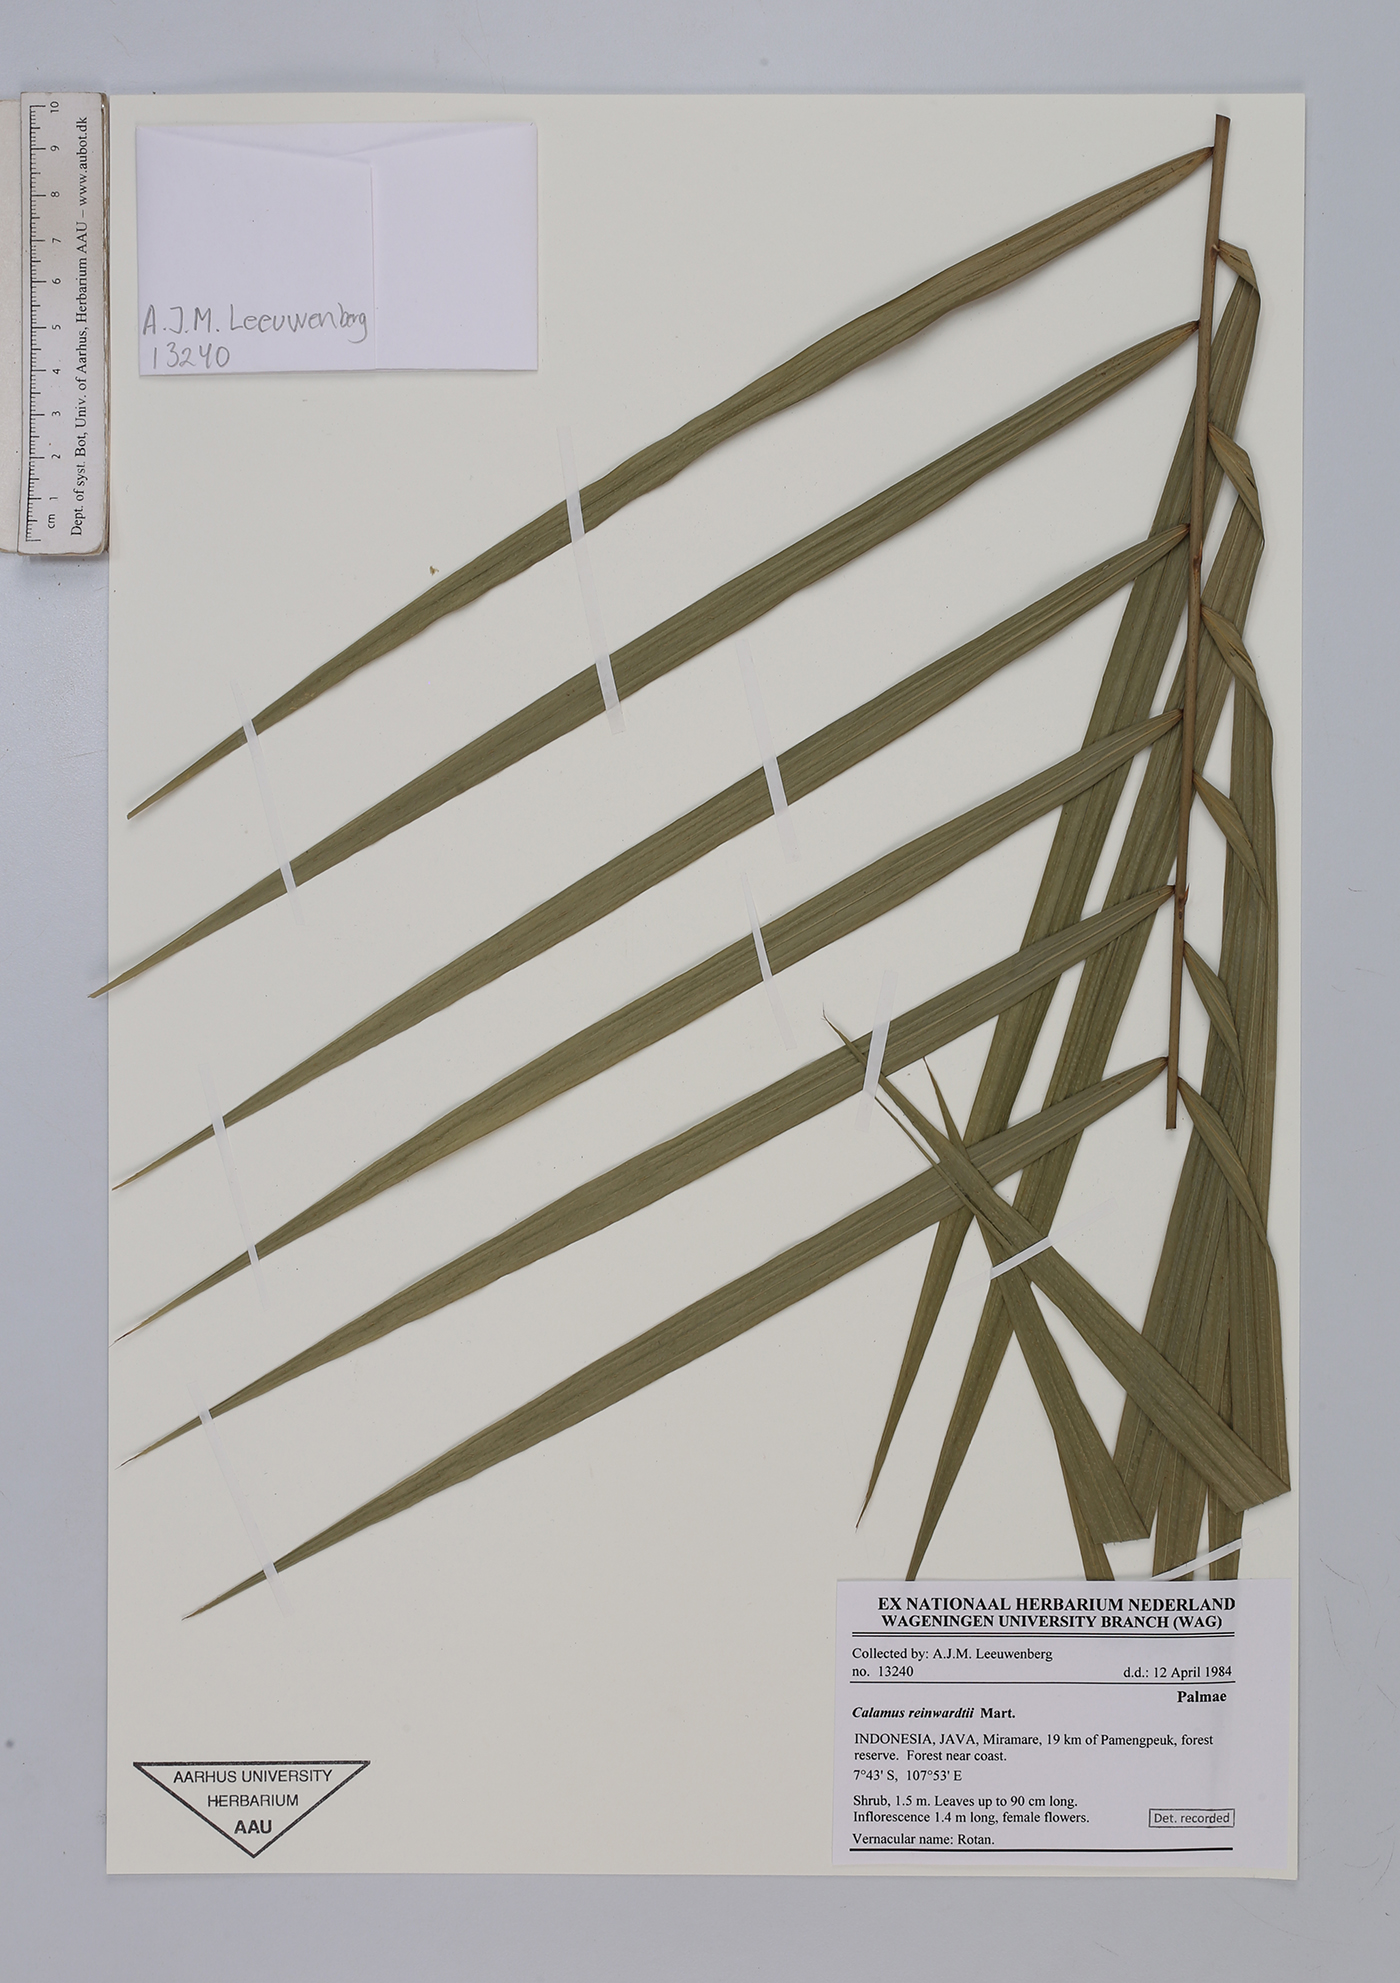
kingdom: Plantae
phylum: Tracheophyta
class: Liliopsida
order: Arecales
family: Arecaceae
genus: Calamus
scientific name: Calamus reinwardtii
